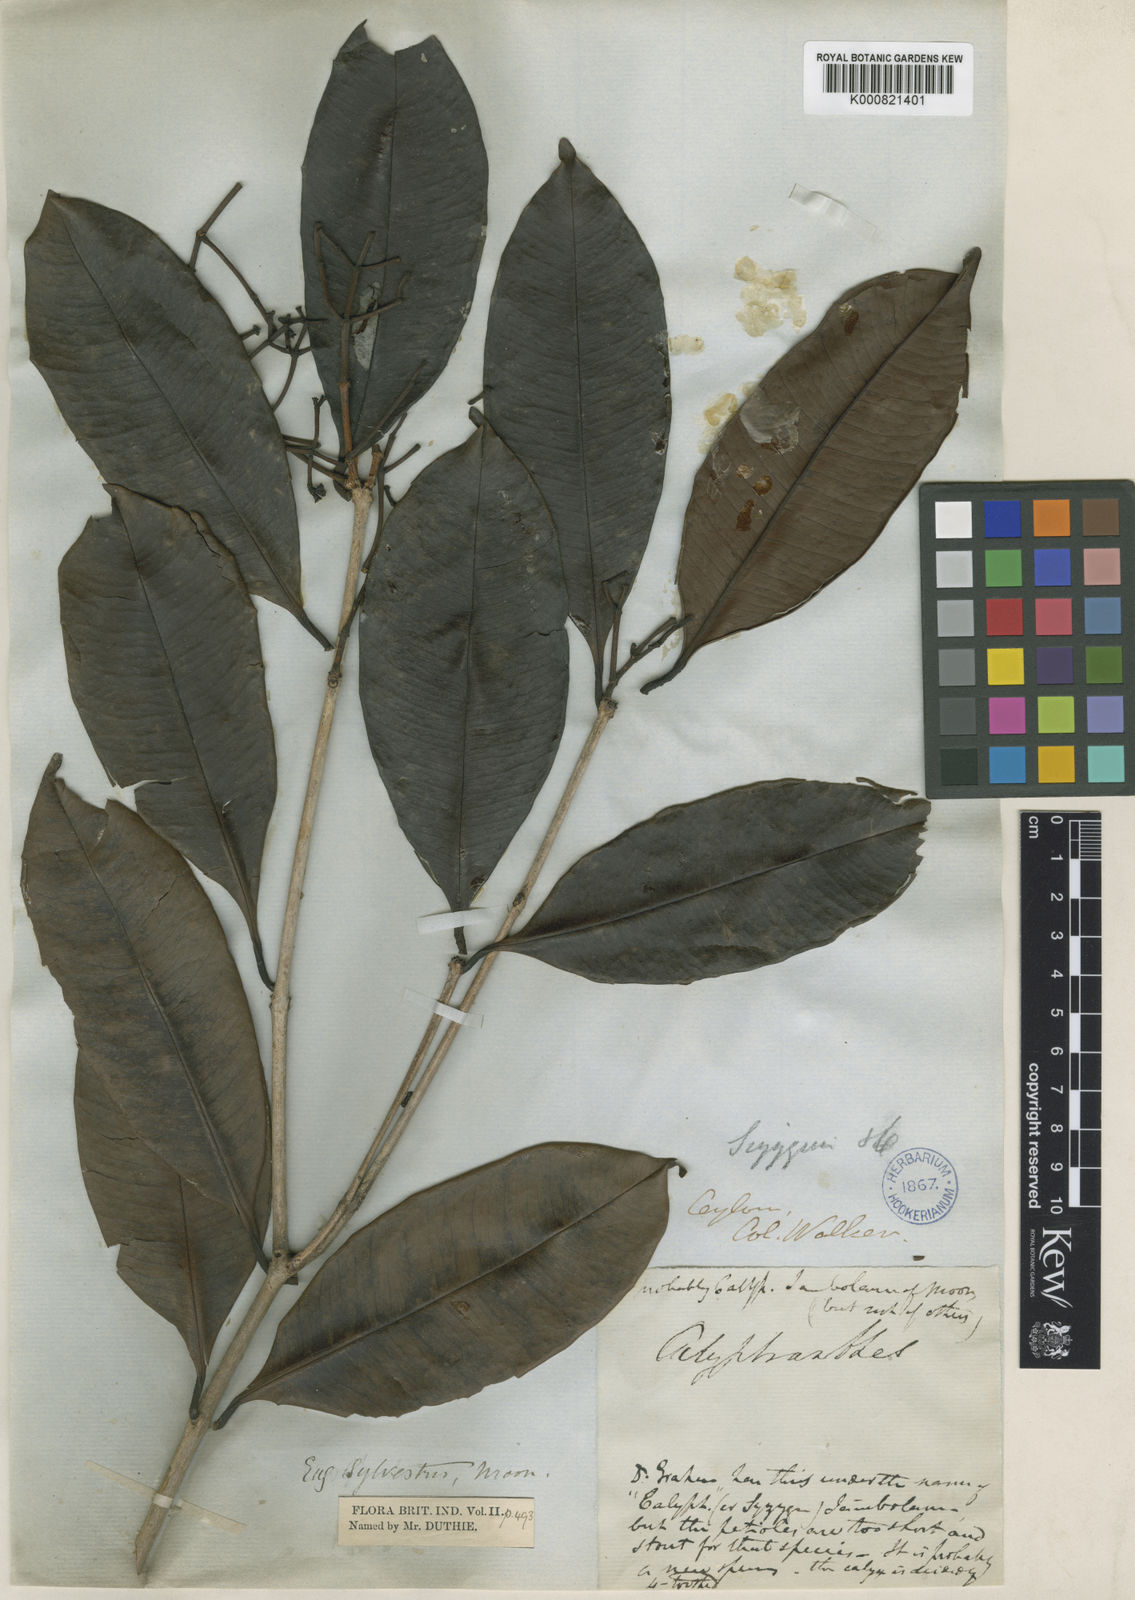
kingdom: Plantae
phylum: Tracheophyta
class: Magnoliopsida
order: Myrtales
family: Myrtaceae
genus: Syzygium
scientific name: Syzygium alubo
